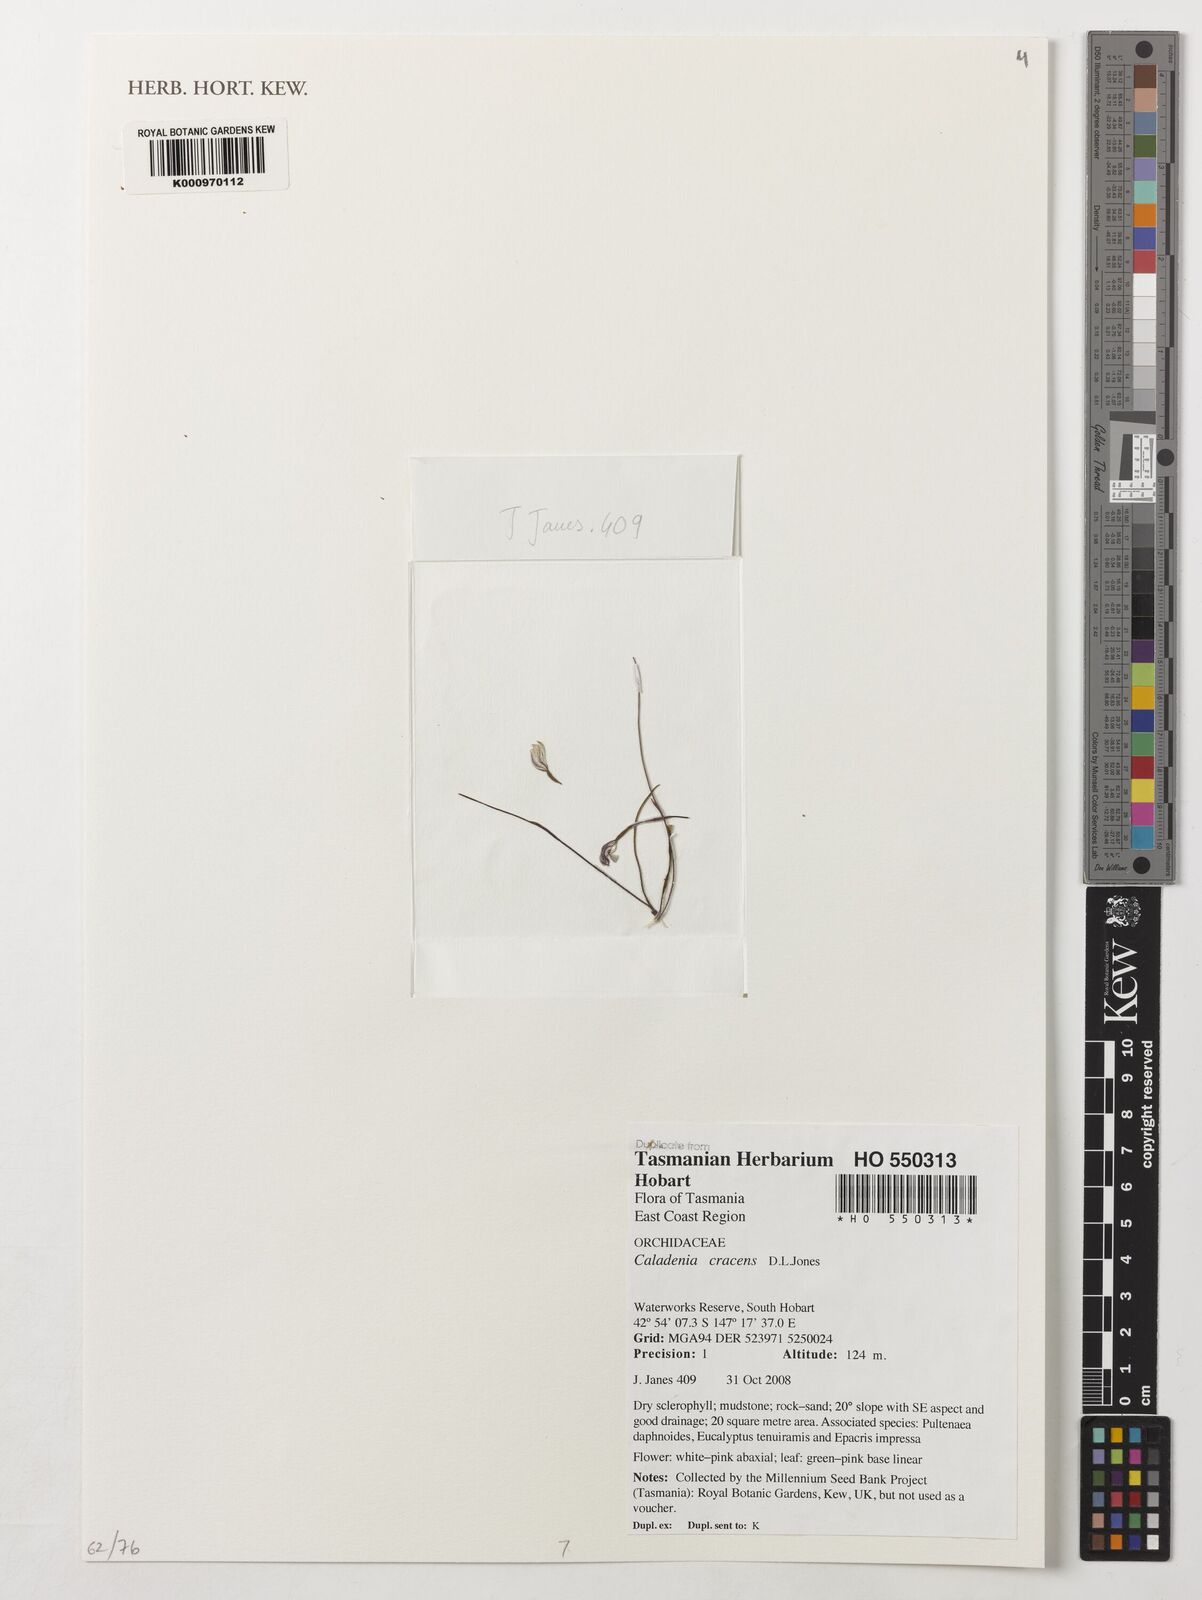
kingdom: Plantae
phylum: Tracheophyta
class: Liliopsida
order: Asparagales
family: Orchidaceae
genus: Caladenia
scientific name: Caladenia cracens
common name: Neat caps
